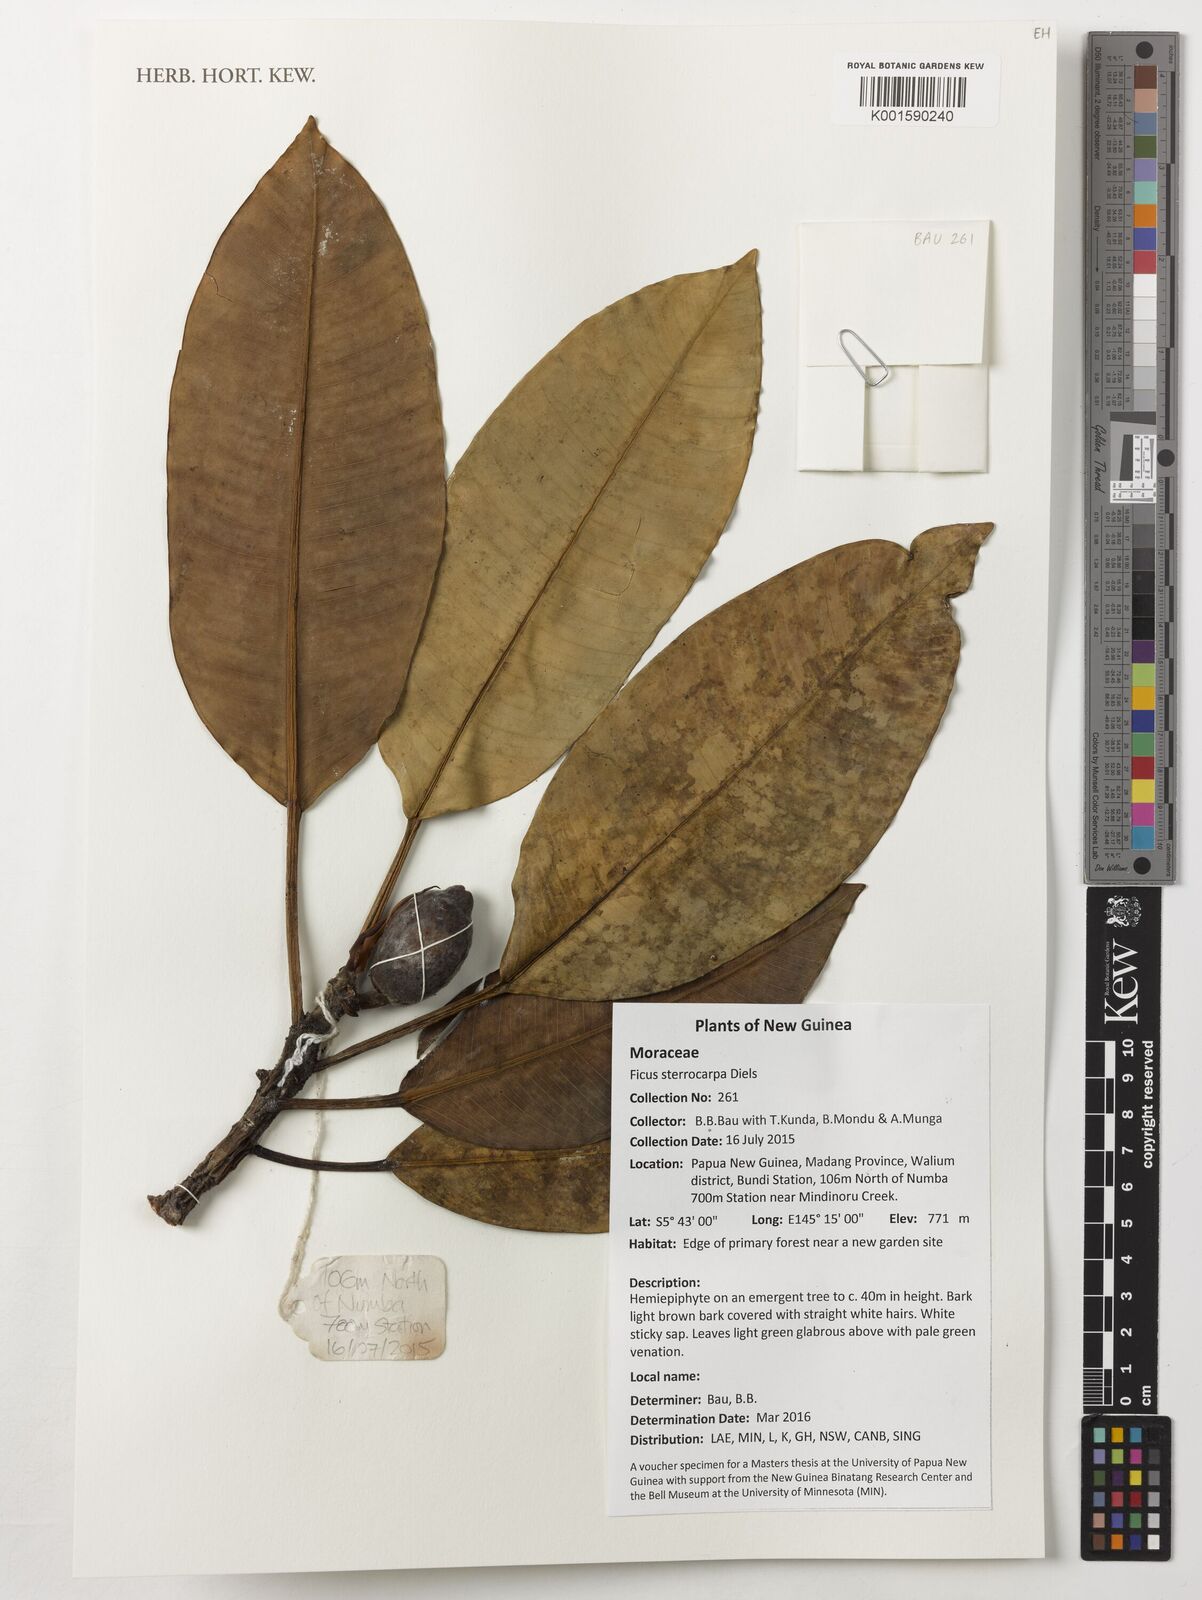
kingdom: Plantae
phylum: Tracheophyta
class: Magnoliopsida
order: Rosales
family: Moraceae
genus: Ficus
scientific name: Ficus hesperidiiformis
